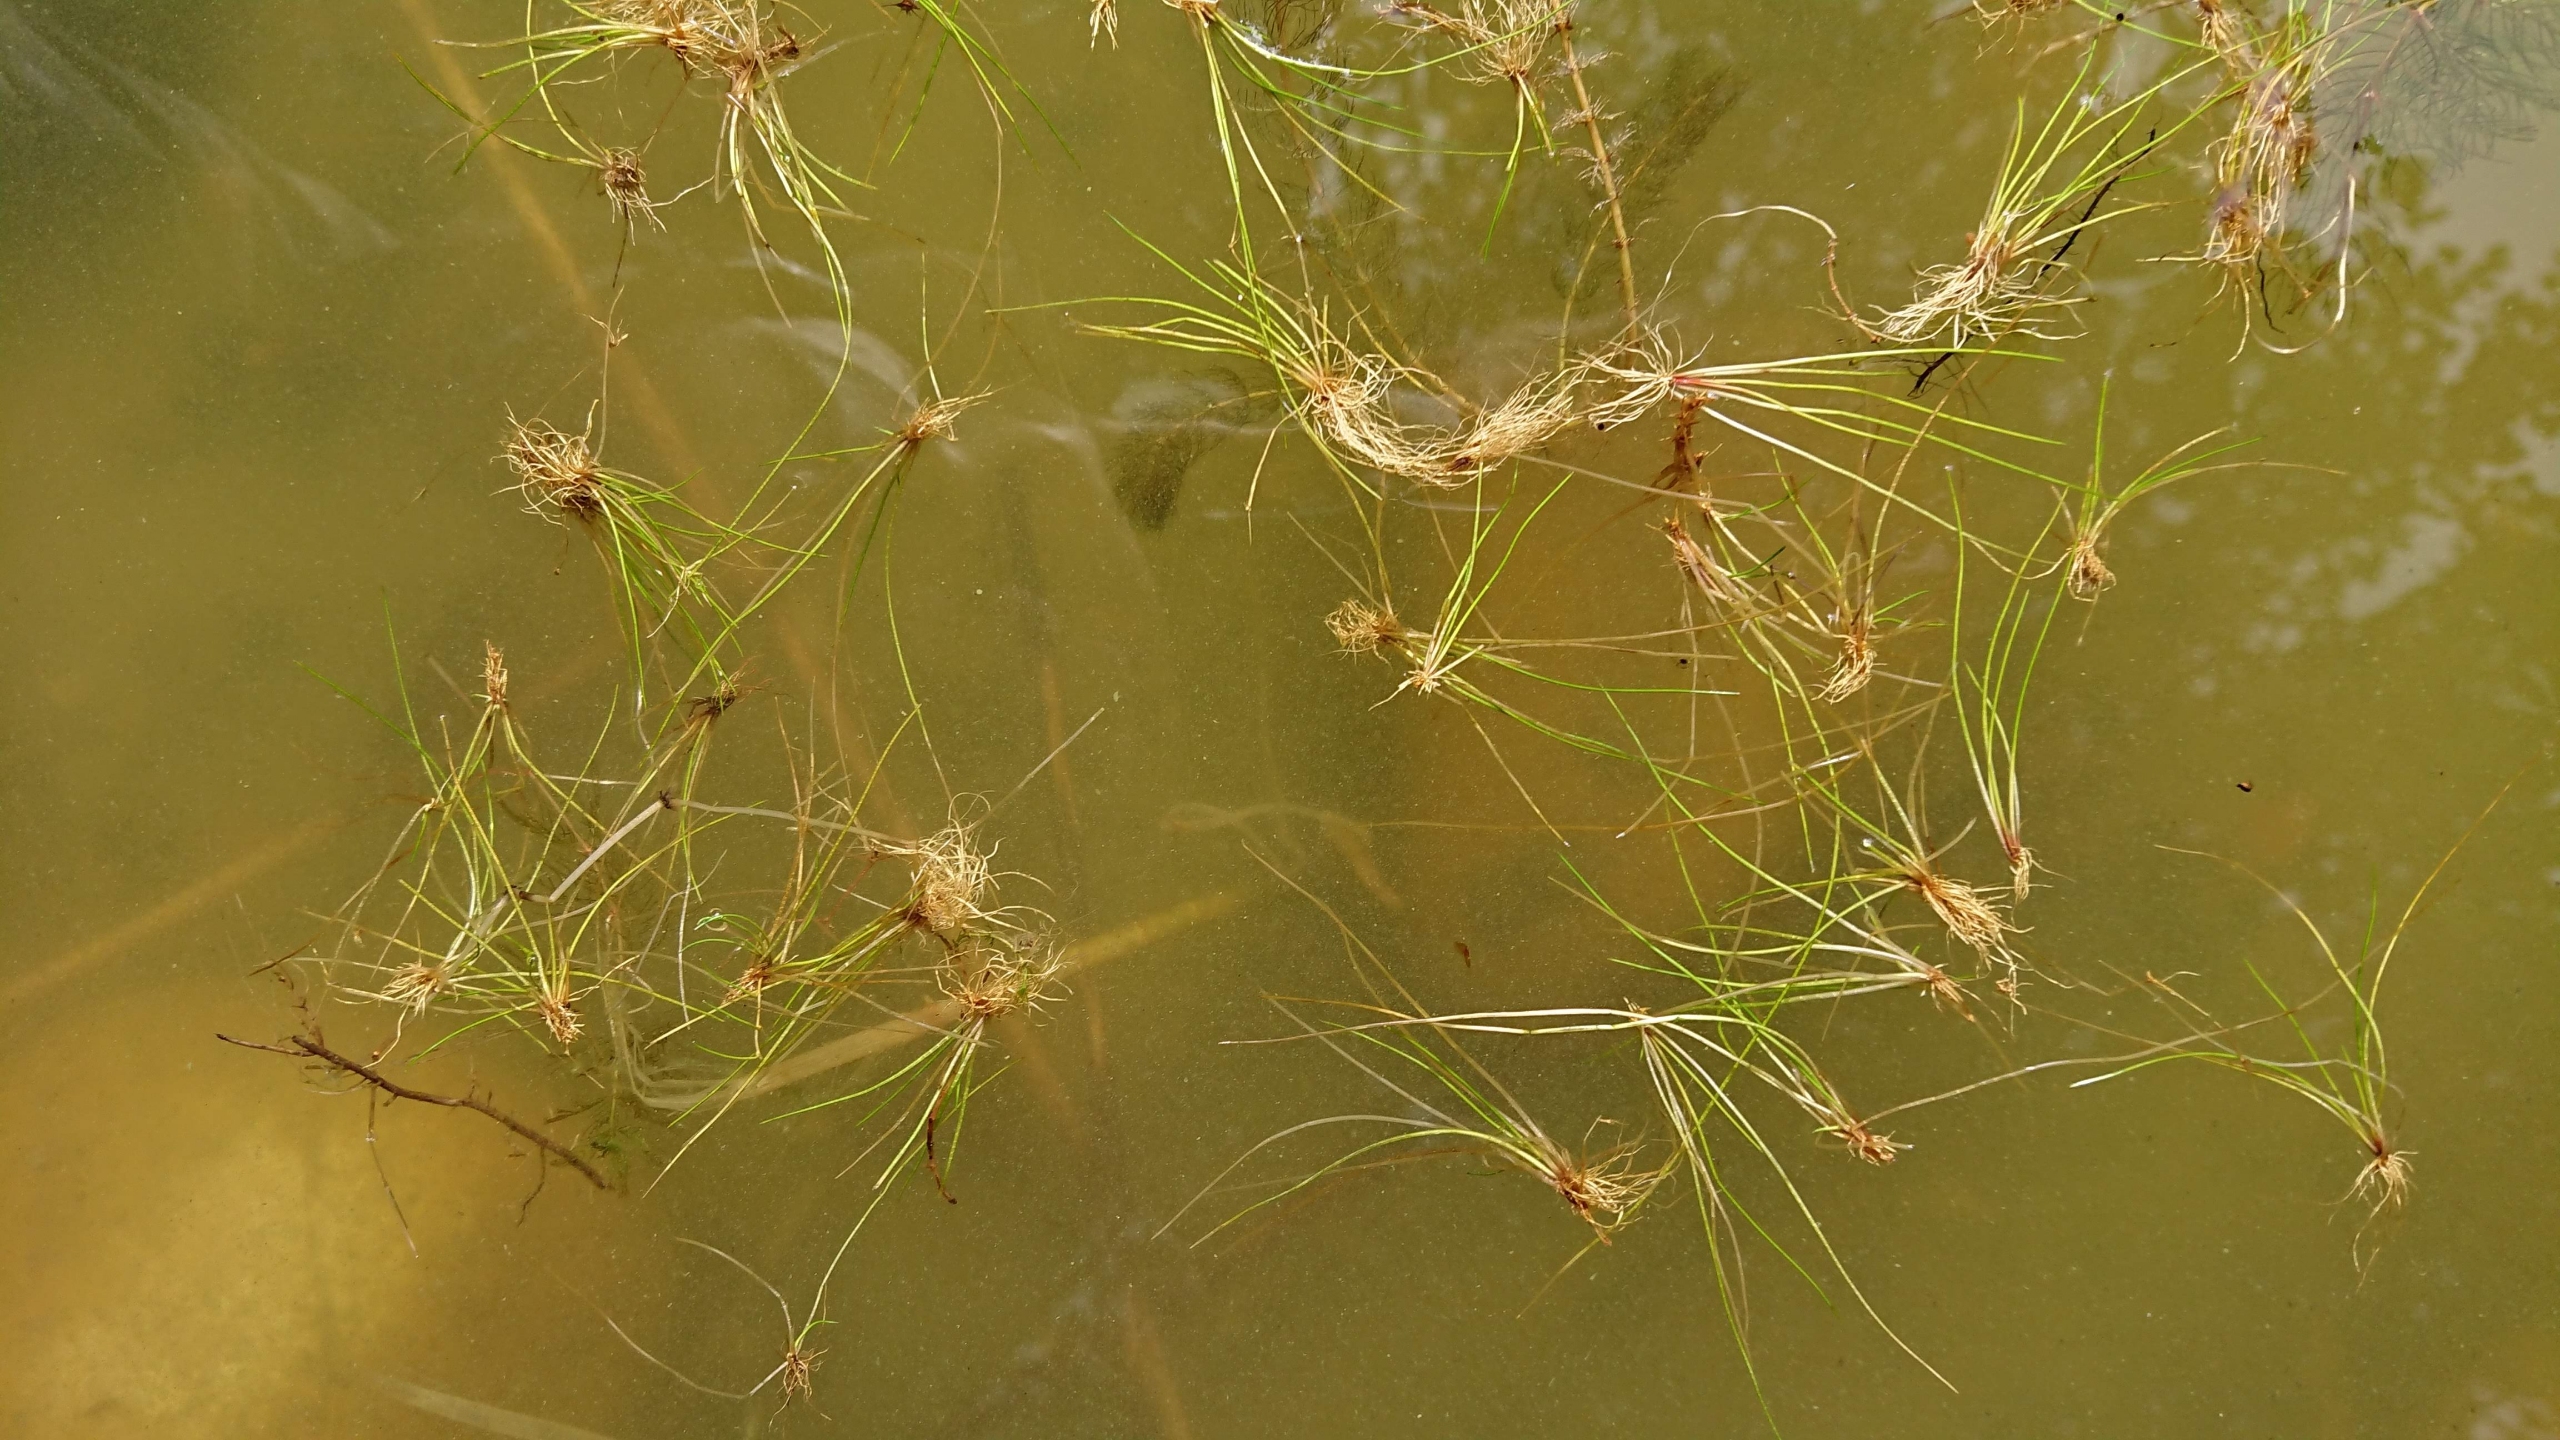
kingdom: Plantae
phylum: Tracheophyta
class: Liliopsida
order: Poales
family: Juncaceae
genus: Juncus
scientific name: Juncus bulbosus
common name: Liden siv
